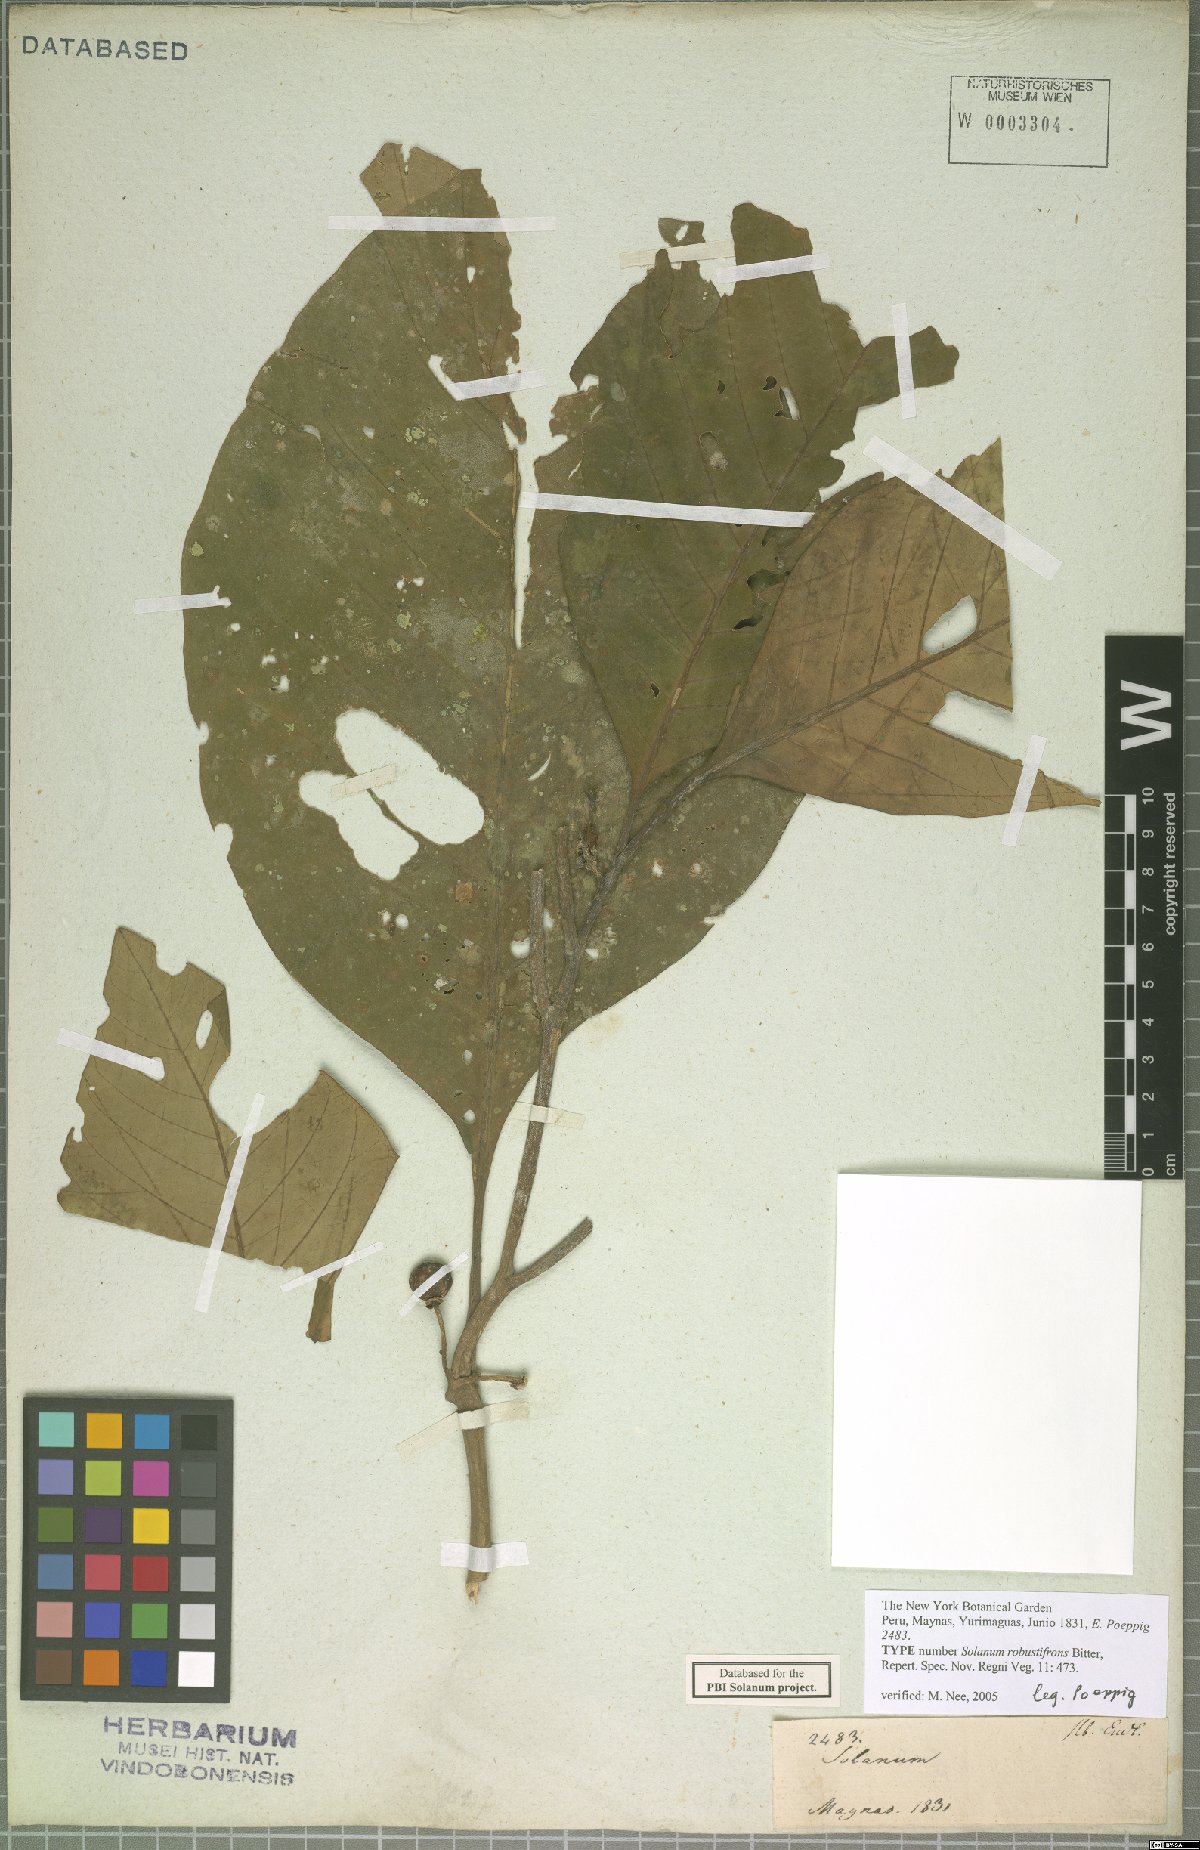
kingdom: Plantae
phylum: Tracheophyta
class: Magnoliopsida
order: Solanales
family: Solanaceae
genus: Solanum
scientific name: Solanum robustifrons
